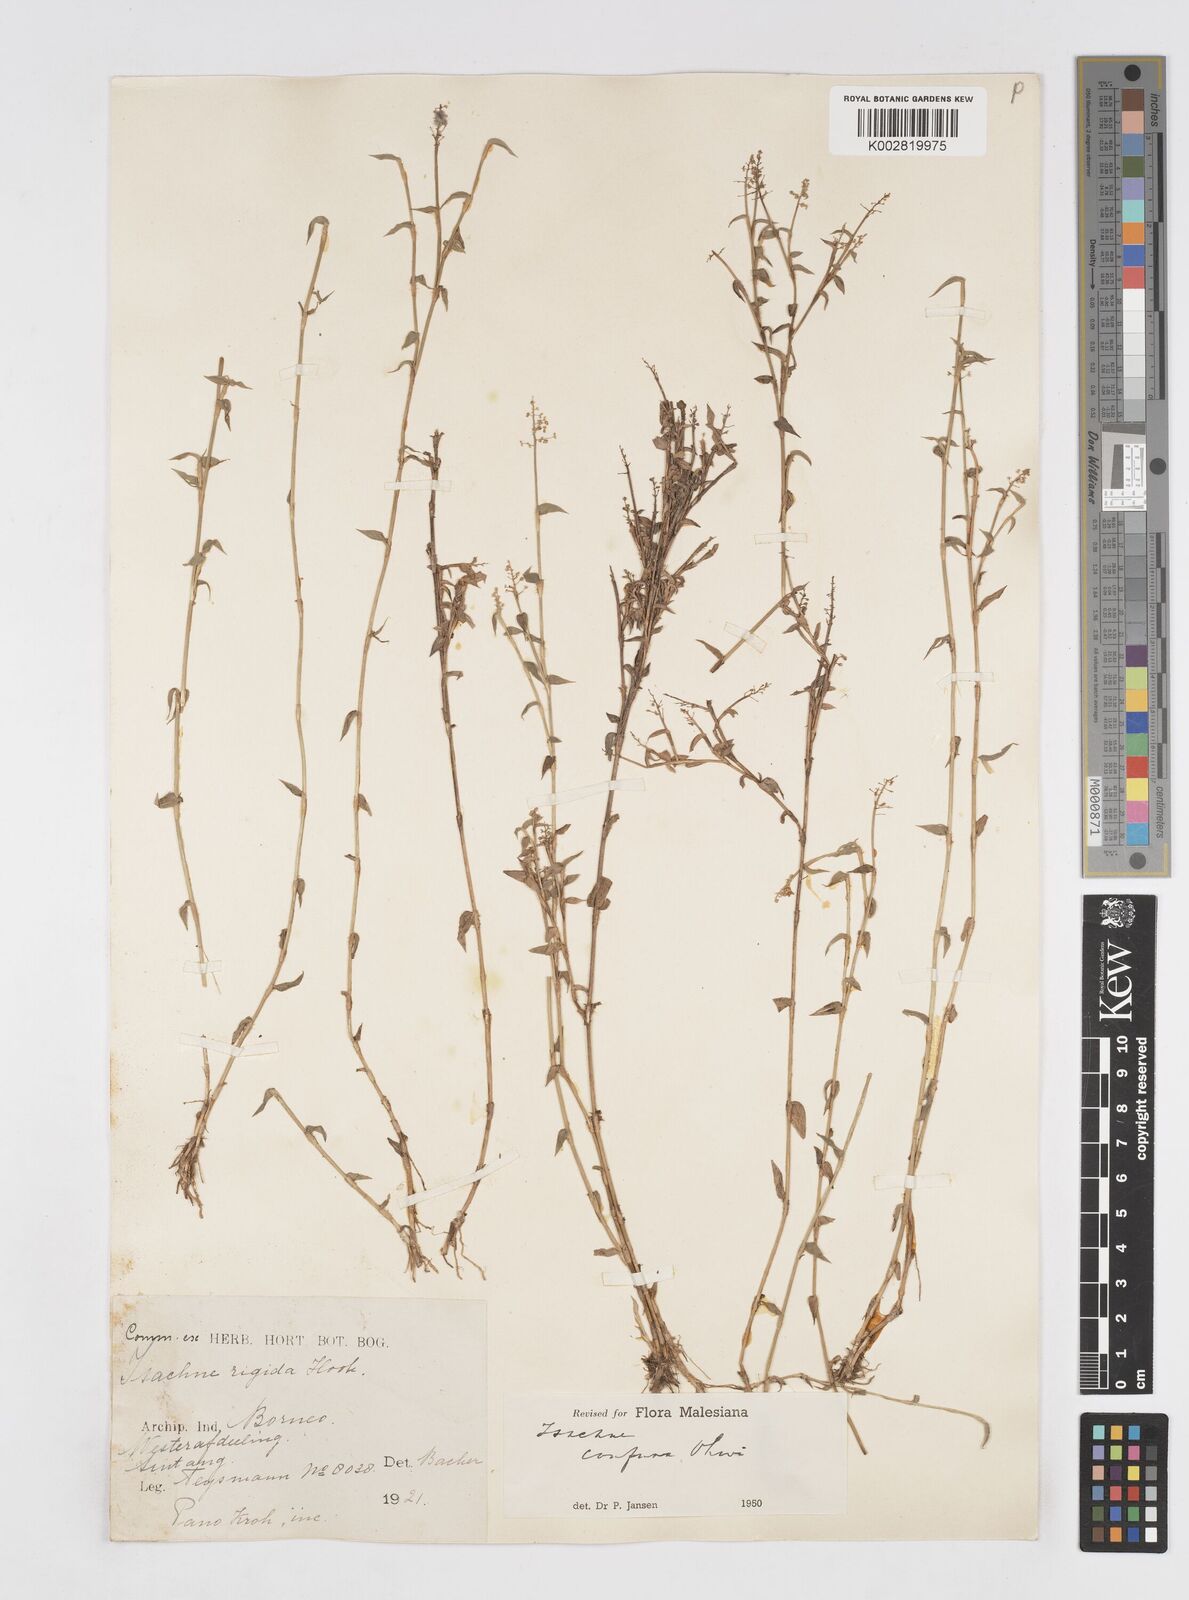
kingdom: Plantae
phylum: Tracheophyta
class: Liliopsida
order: Poales
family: Poaceae
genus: Isachne
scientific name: Isachne confusa
